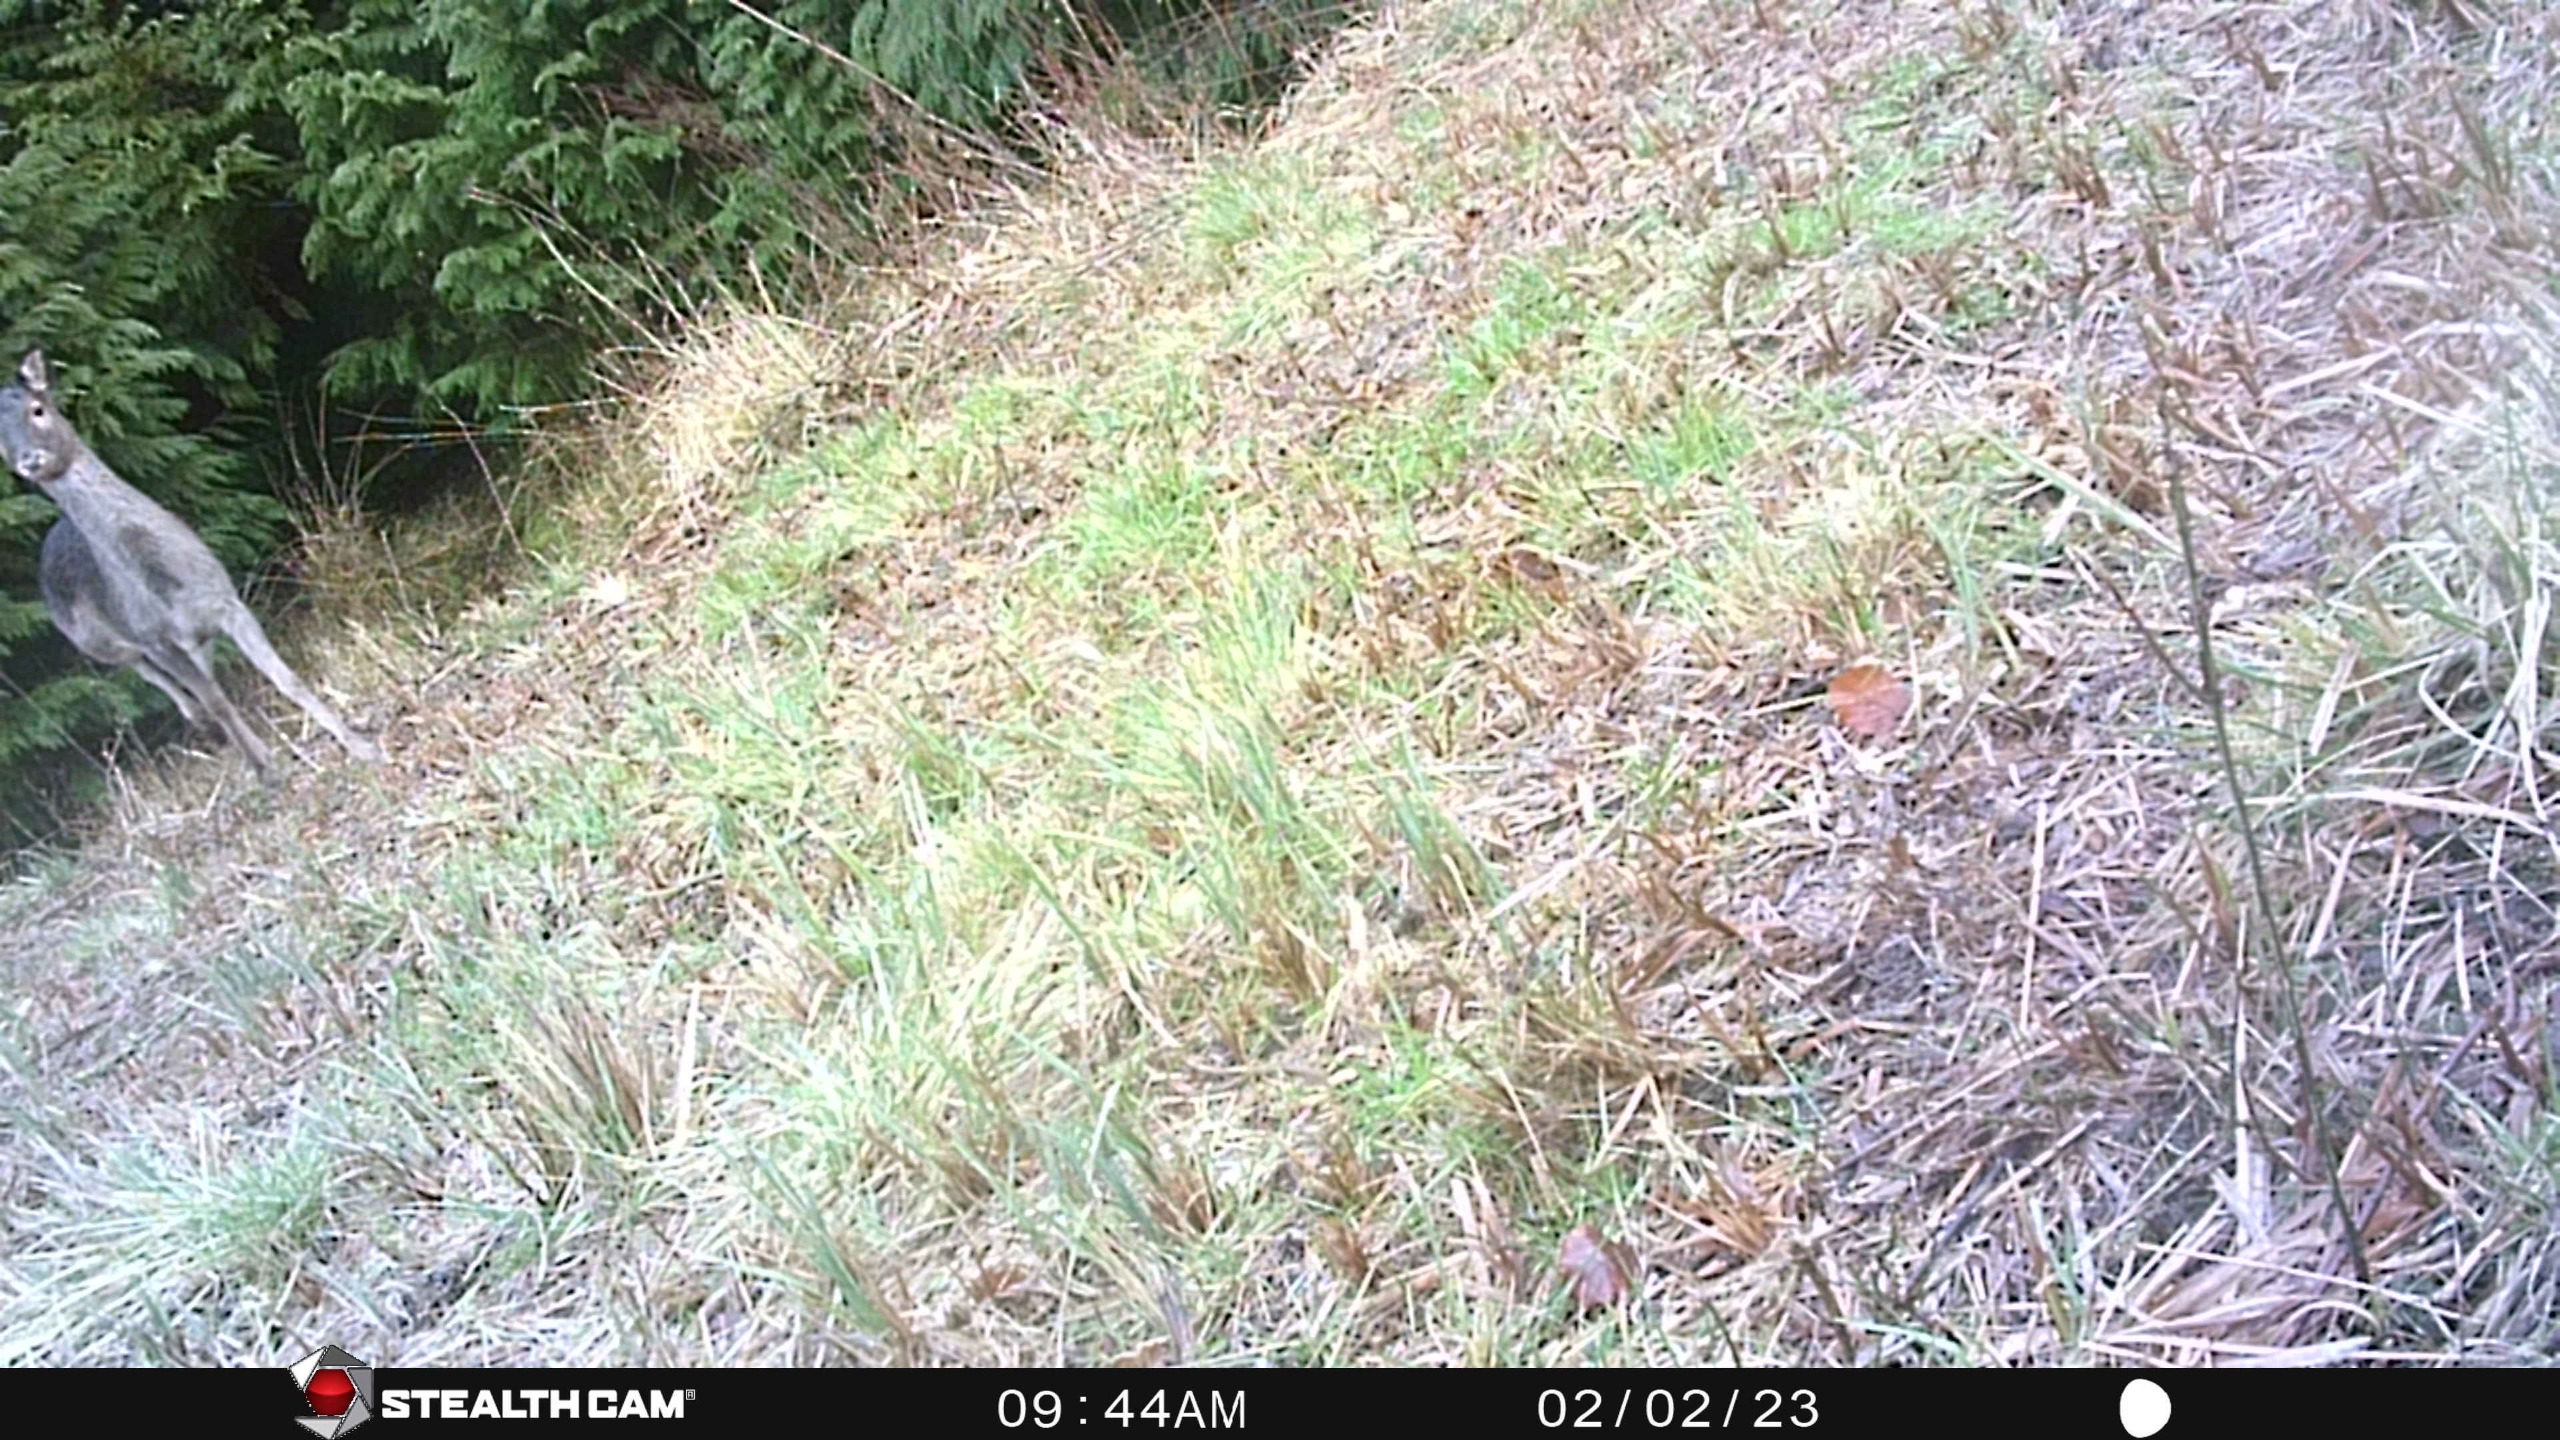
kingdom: Animalia
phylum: Chordata
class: Mammalia
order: Artiodactyla
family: Cervidae
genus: Dama
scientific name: Dama dama
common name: Dådyr
